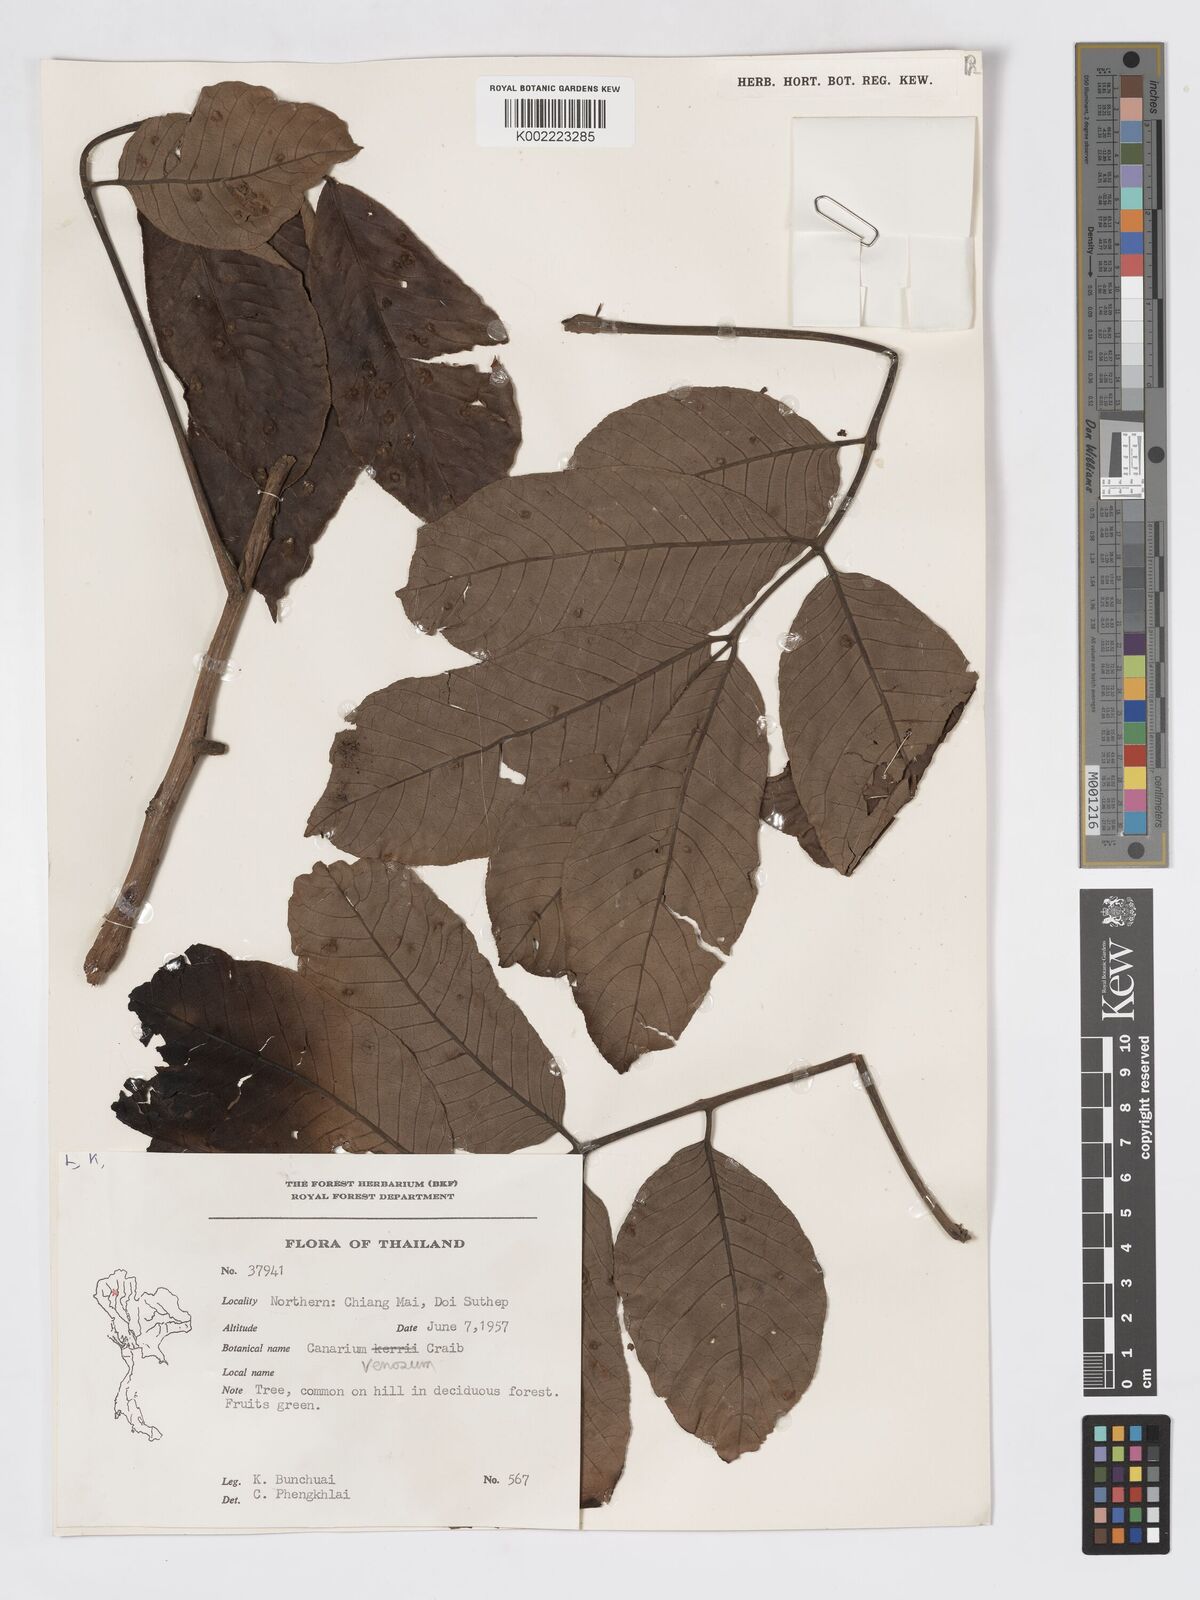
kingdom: Plantae
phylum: Tracheophyta
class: Magnoliopsida
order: Sapindales
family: Burseraceae
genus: Canarium
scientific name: Canarium subulatum
